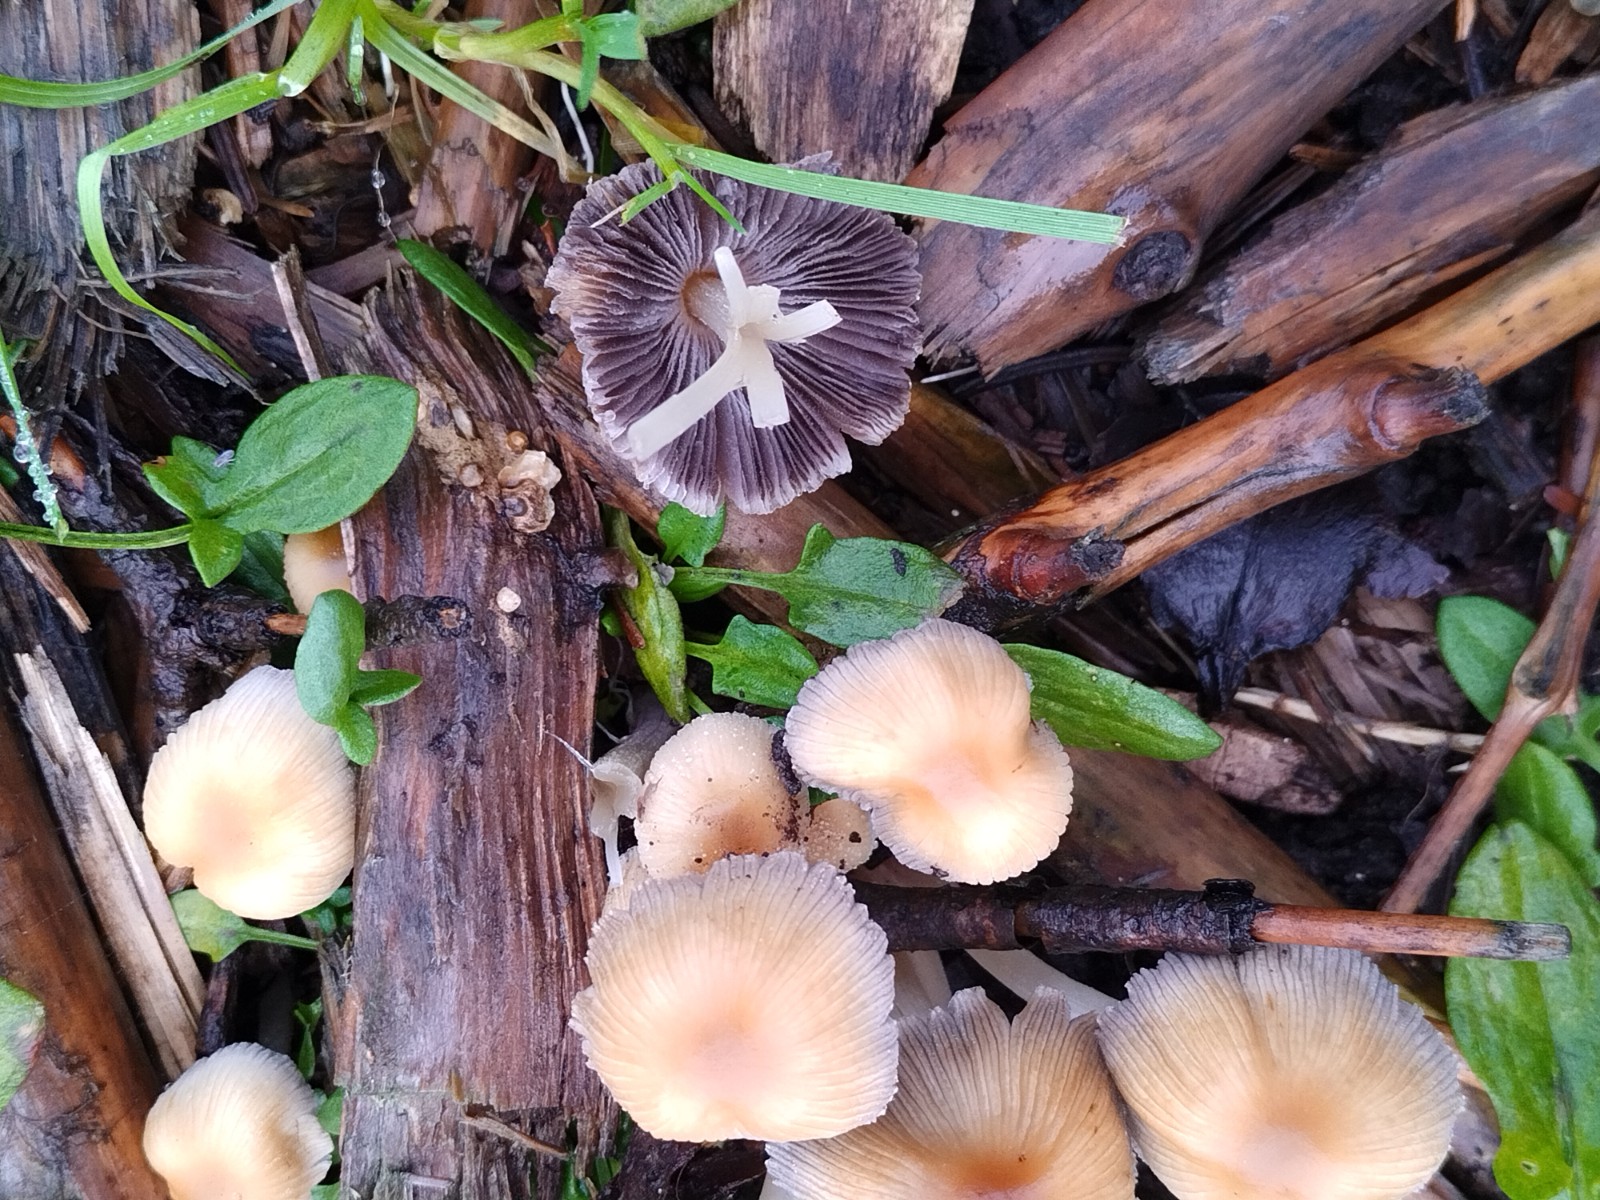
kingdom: Fungi
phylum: Basidiomycota
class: Agaricomycetes
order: Agaricales
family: Psathyrellaceae
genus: Coprinellus
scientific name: Coprinellus micaceus
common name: glimmer-blækhat
